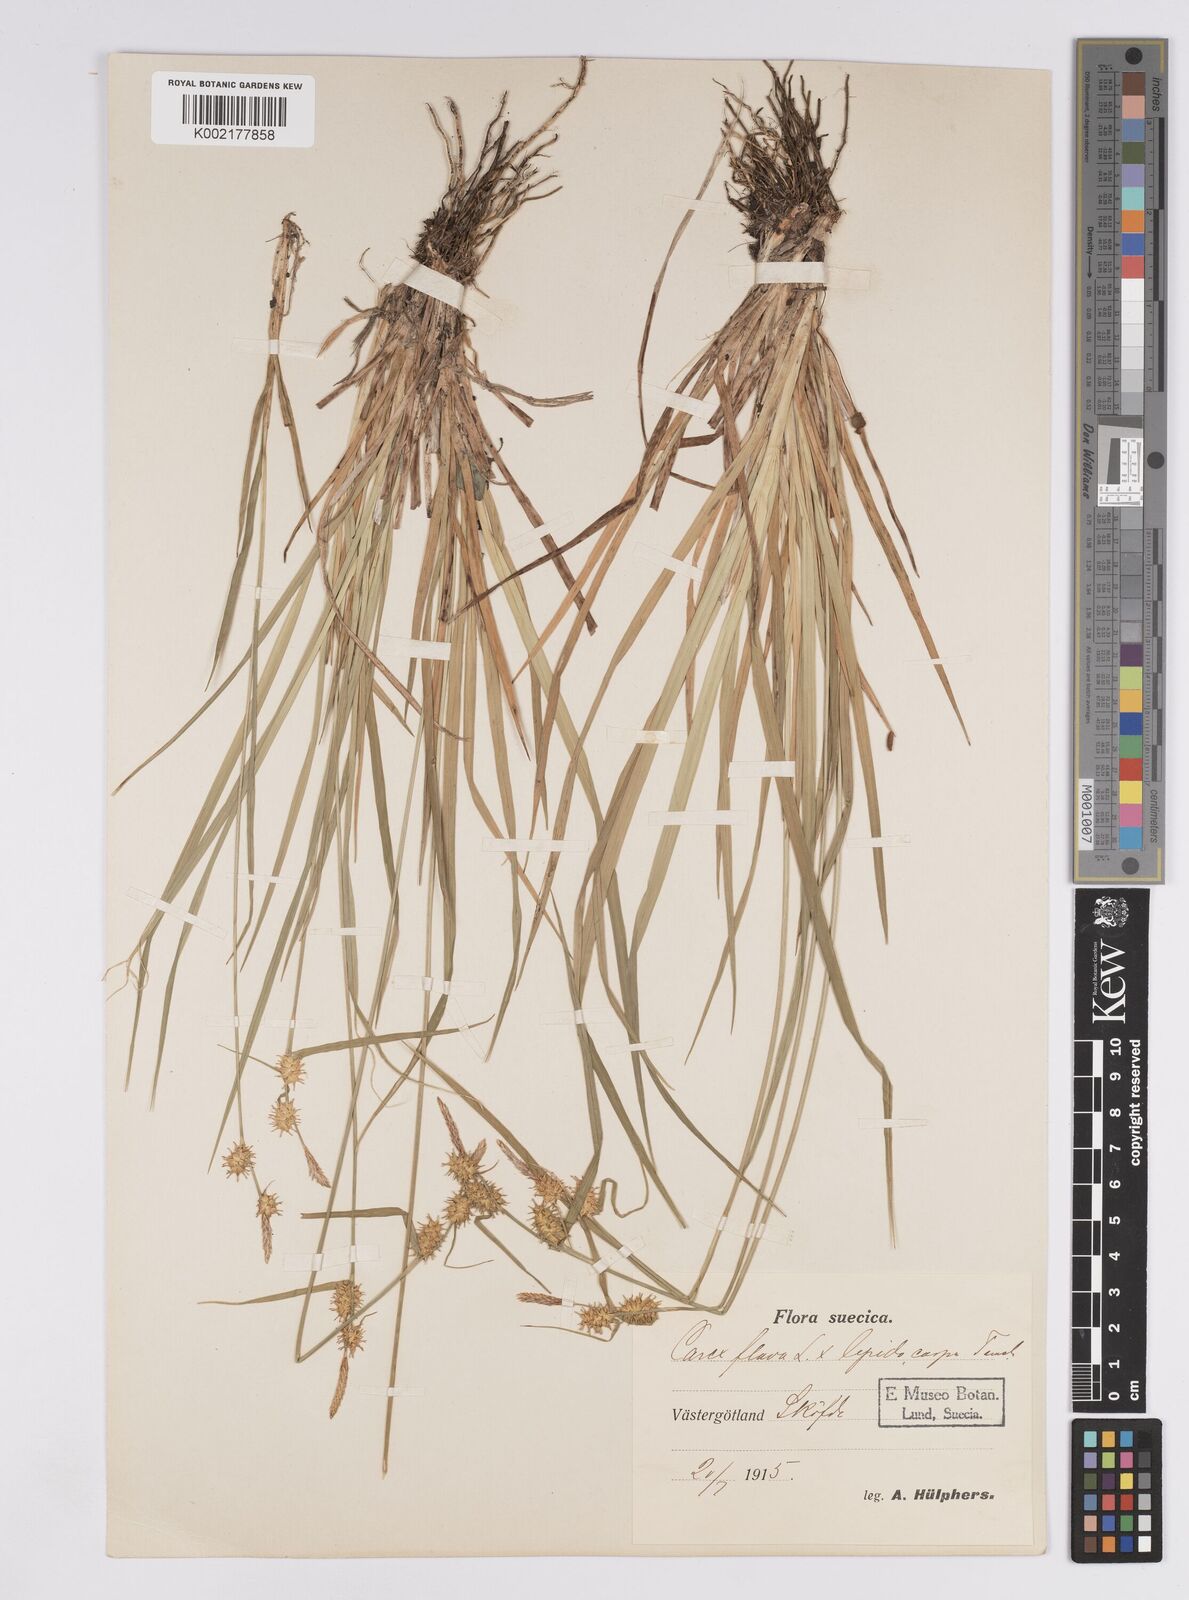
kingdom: Plantae
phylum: Tracheophyta
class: Liliopsida
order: Poales
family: Cyperaceae
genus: Carex
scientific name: Carex flava
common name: Large yellow-sedge
